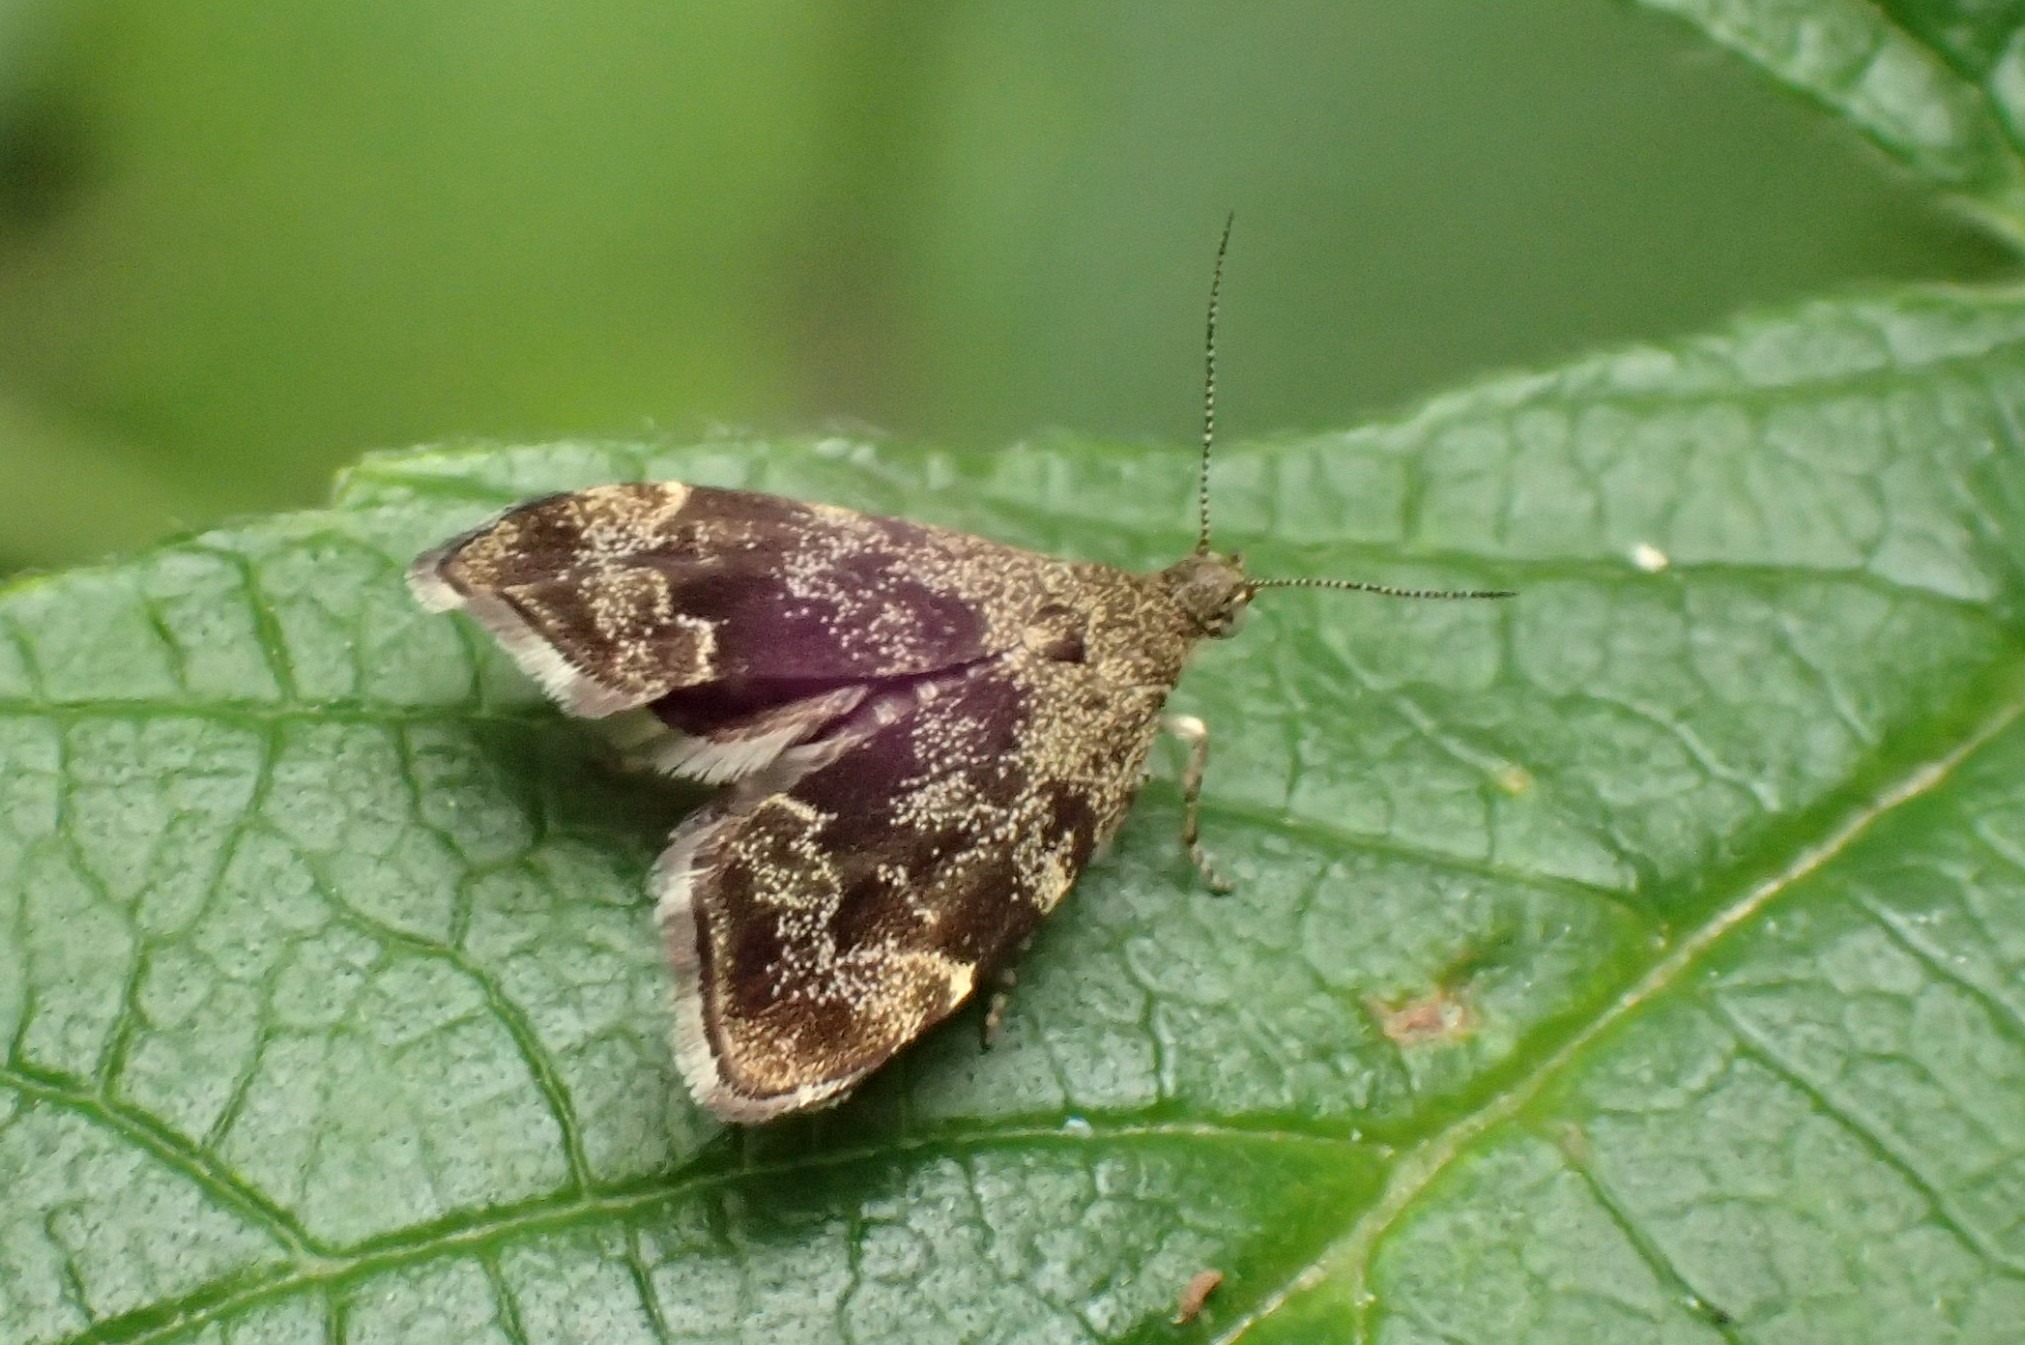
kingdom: Animalia
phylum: Arthropoda
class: Insecta
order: Lepidoptera
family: Choreutidae
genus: Anthophila
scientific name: Anthophila fabriciana
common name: Bredvinget nældevikler
